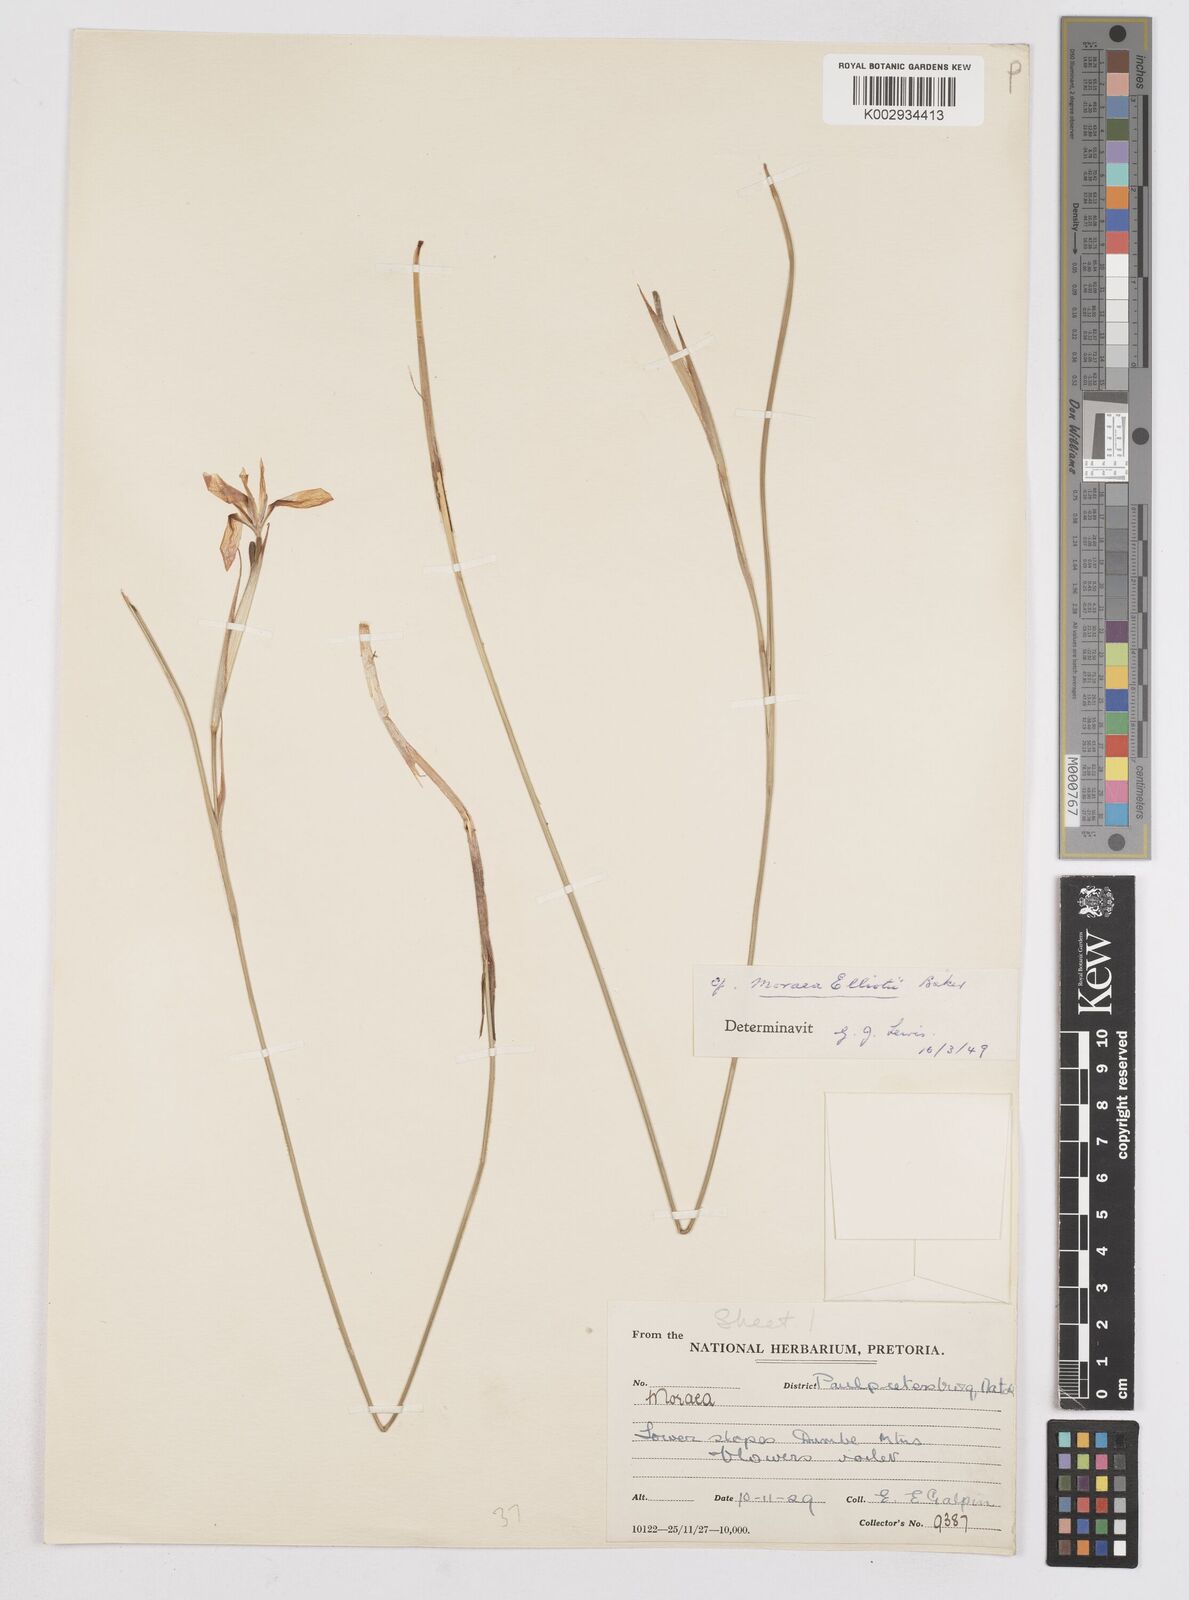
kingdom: Plantae
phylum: Tracheophyta
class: Liliopsida
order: Asparagales
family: Iridaceae
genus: Moraea
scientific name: Moraea elliotii
